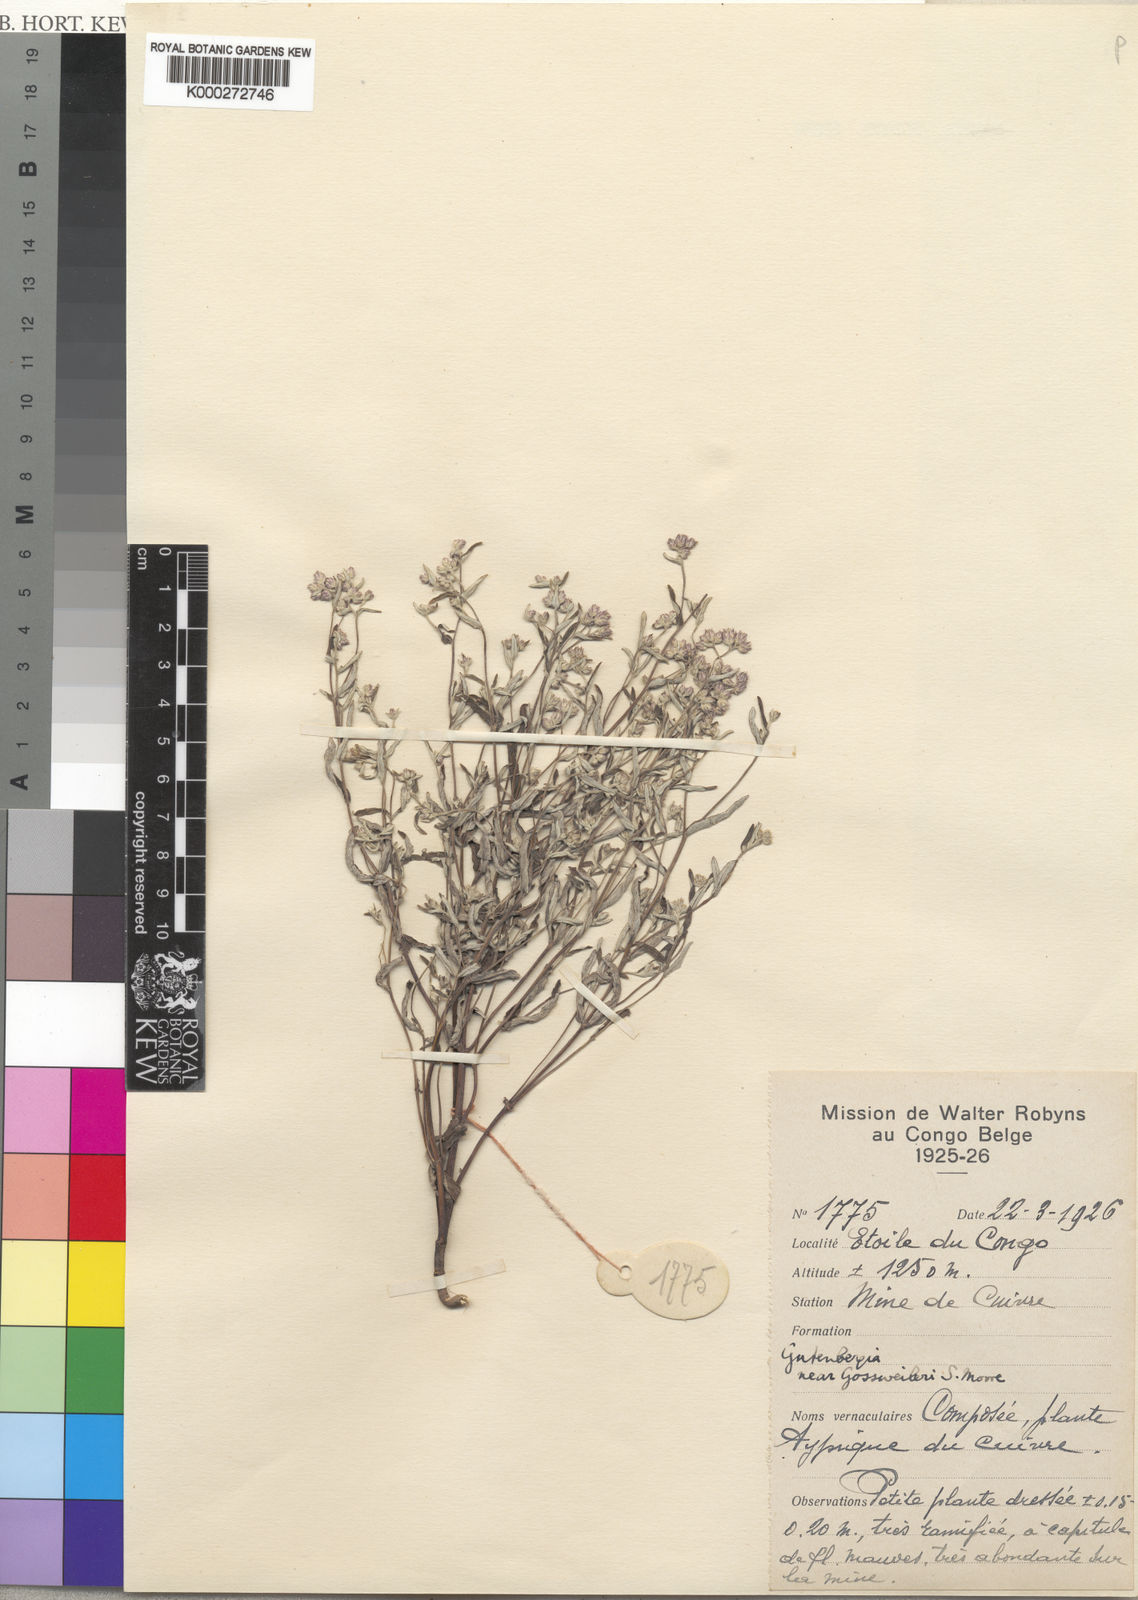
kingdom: Plantae
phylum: Tracheophyta
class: Magnoliopsida
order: Asterales
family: Asteraceae
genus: Gutenbergia
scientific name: Gutenbergia pubescens
